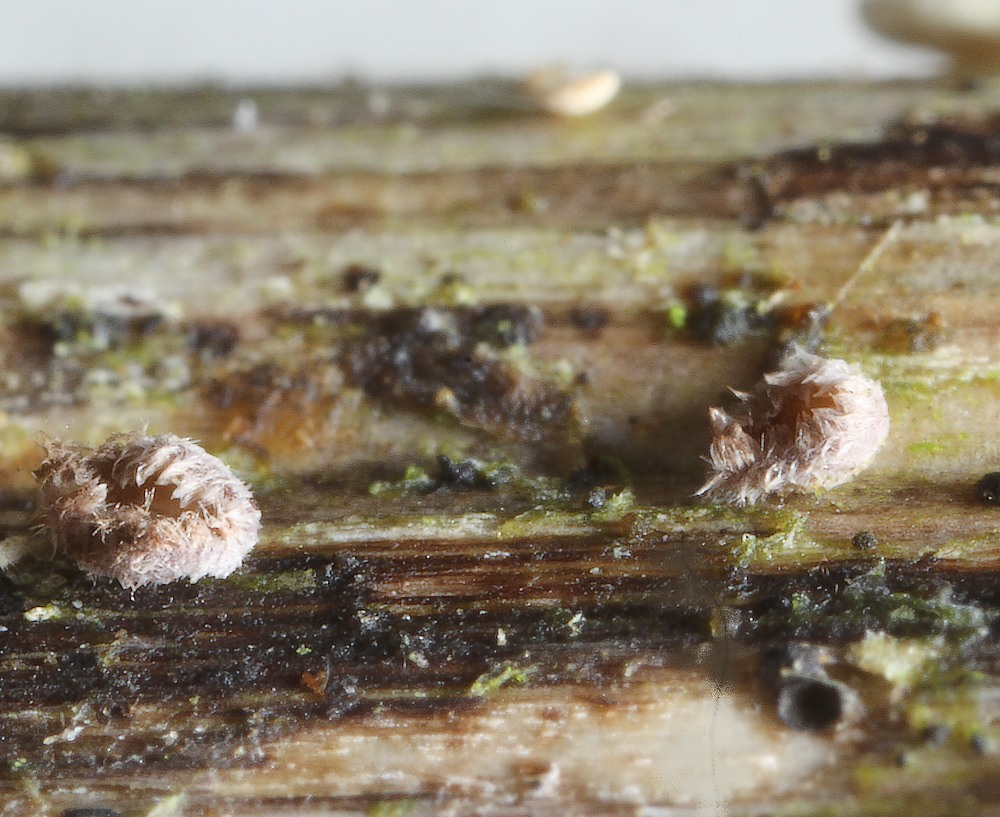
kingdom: Fungi
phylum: Ascomycota
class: Leotiomycetes
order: Helotiales
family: Lachnaceae
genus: Trichopeziza
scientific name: Trichopeziza
